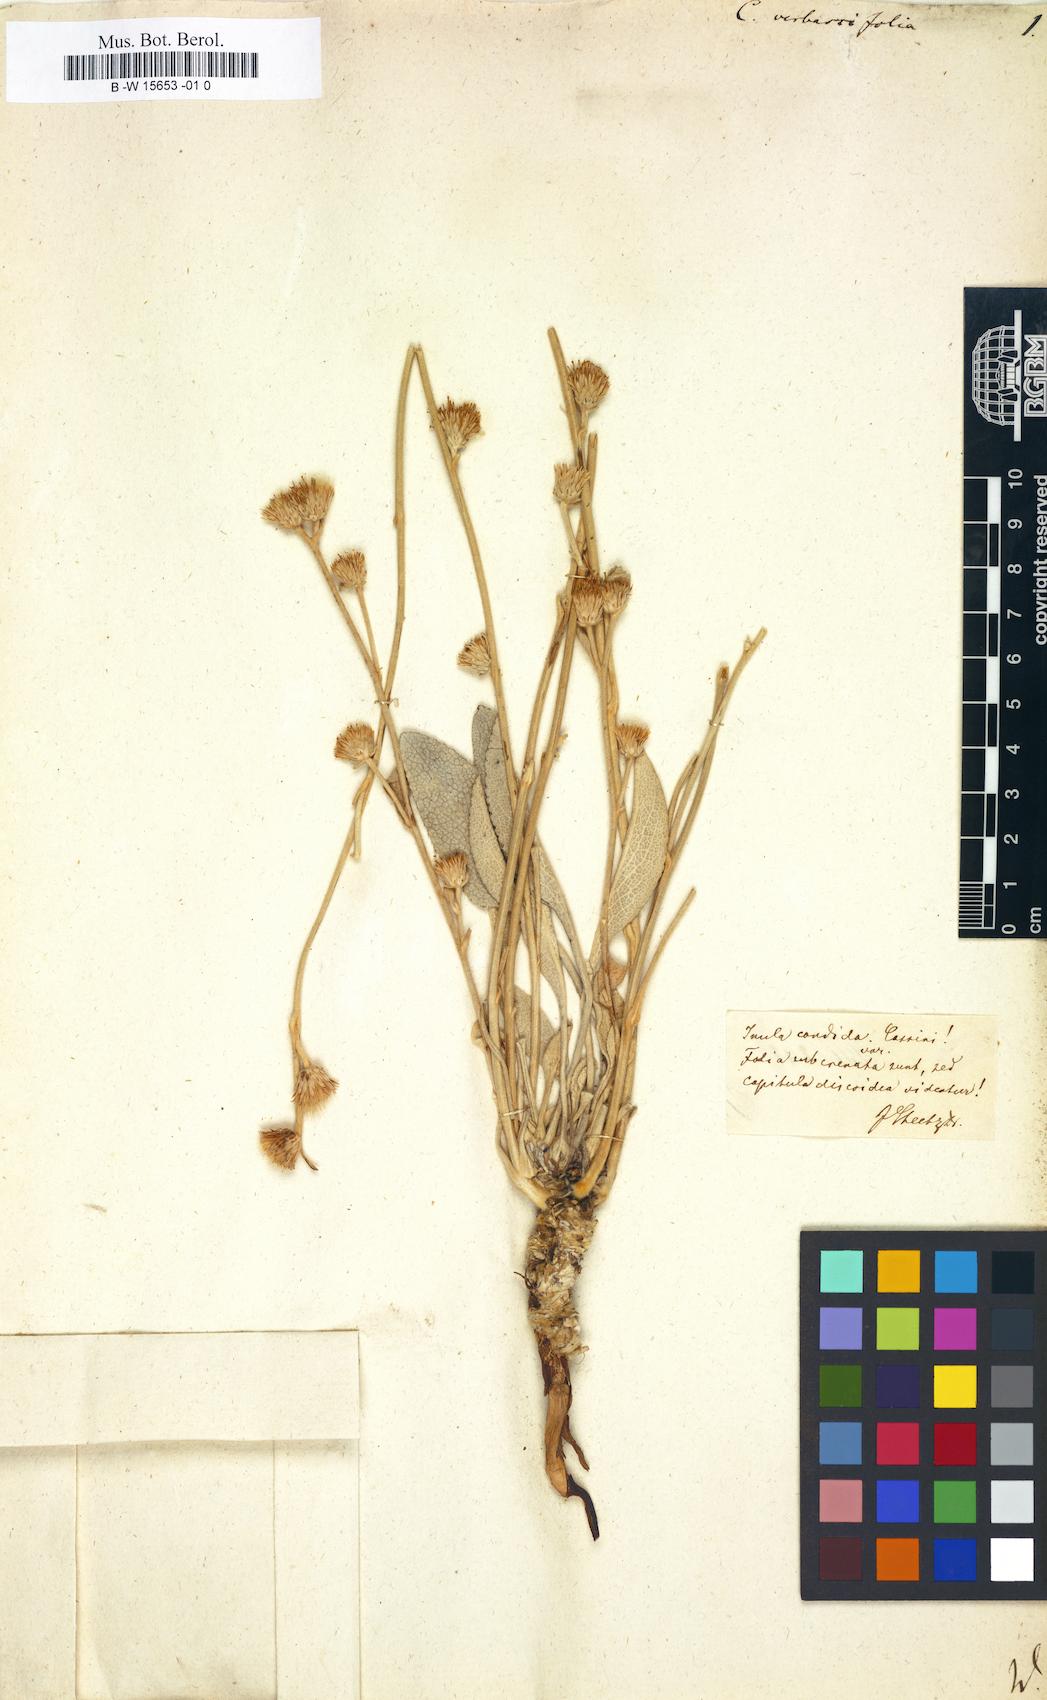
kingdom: Plantae
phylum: Tracheophyta
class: Magnoliopsida
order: Asterales
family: Asteraceae
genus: Pentanema
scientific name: Pentanema verbascifolium
